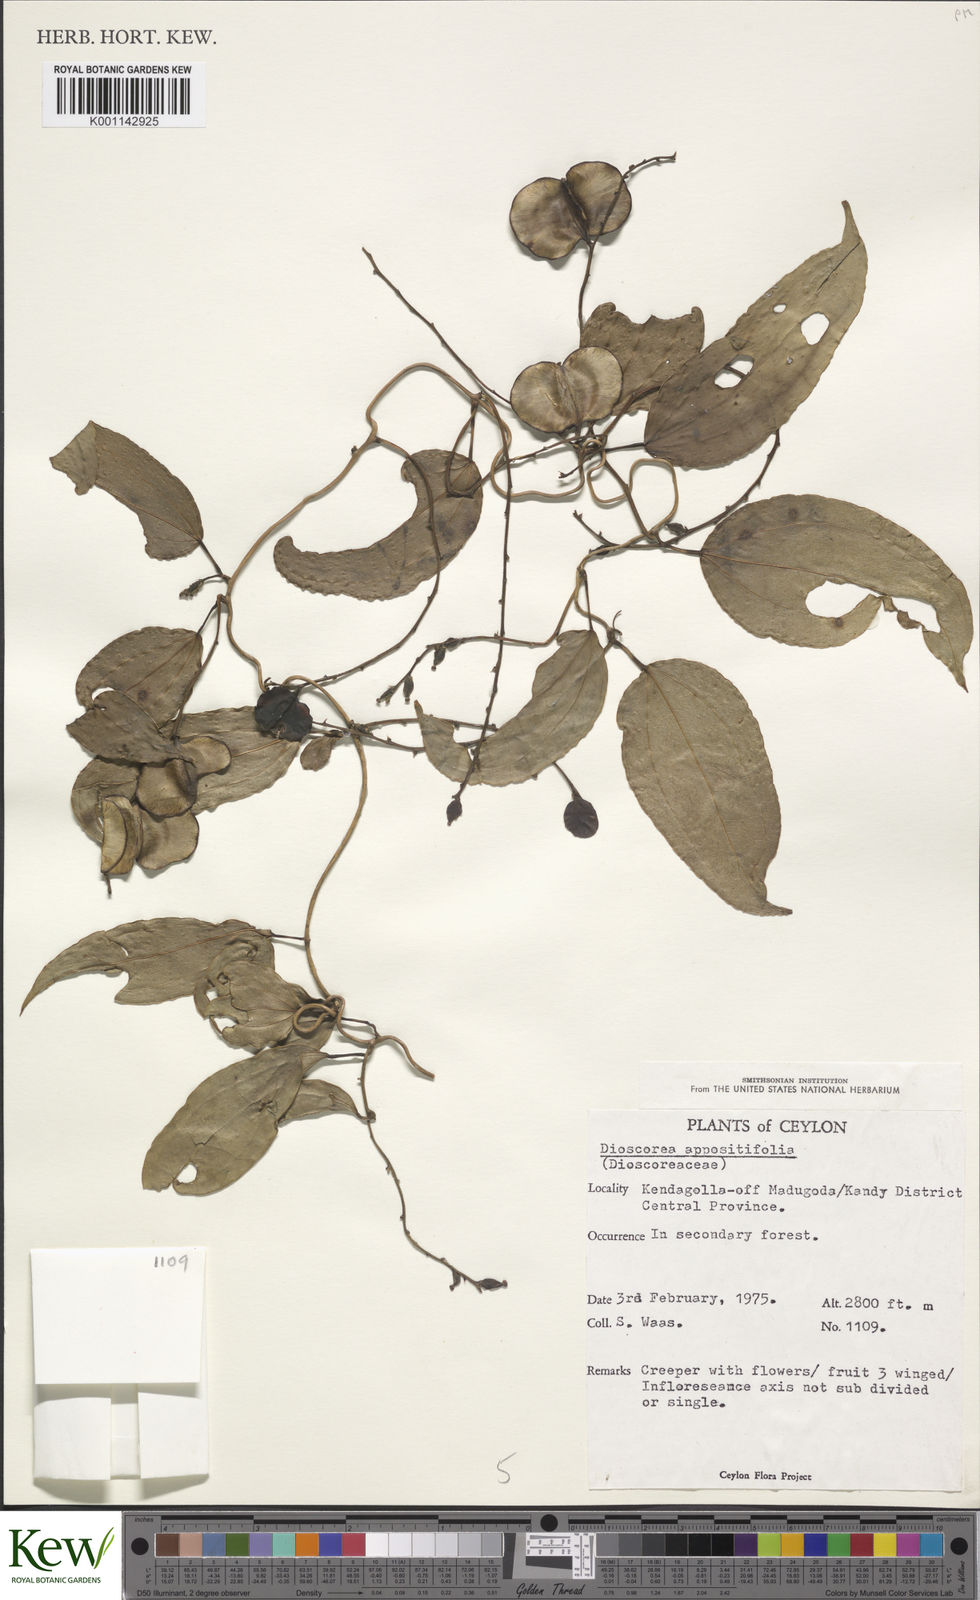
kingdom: Plantae
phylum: Tracheophyta
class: Liliopsida
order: Dioscoreales
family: Dioscoreaceae
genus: Dioscorea
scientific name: Dioscorea oppositifolia
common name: Chinese yam
